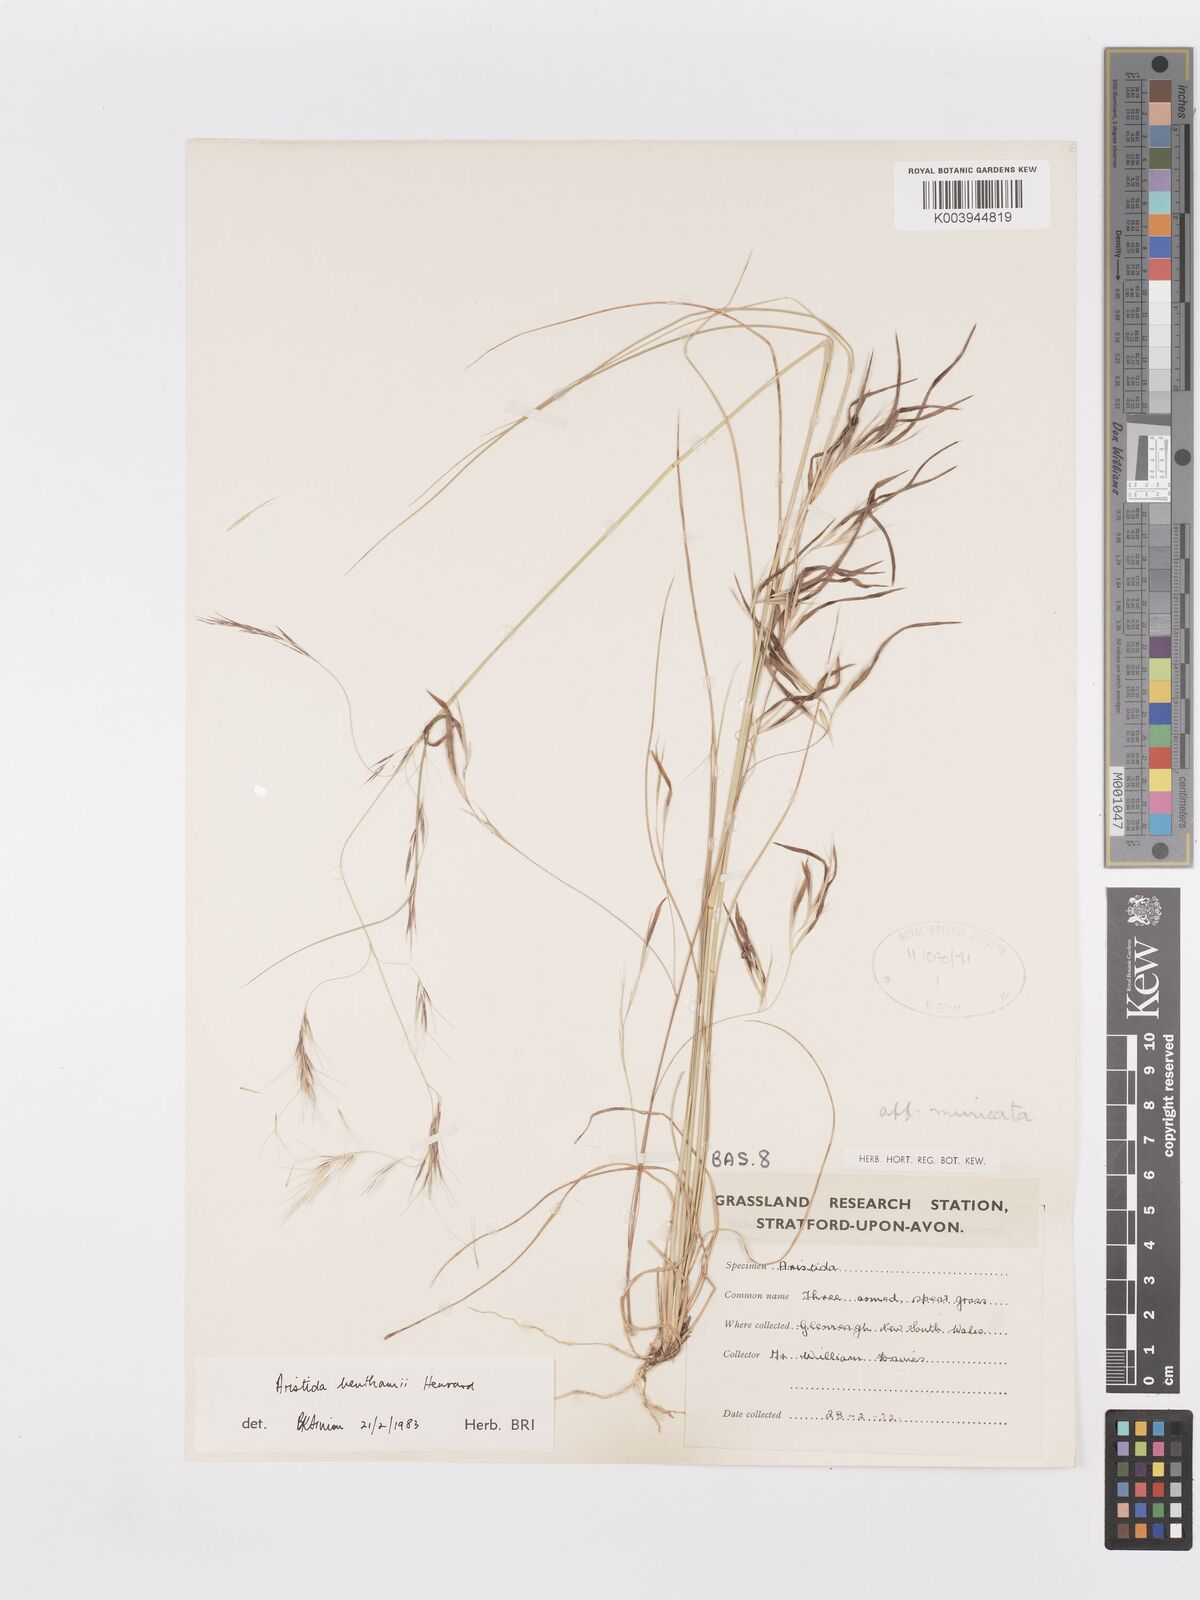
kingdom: Plantae
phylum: Tracheophyta
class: Liliopsida
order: Poales
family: Poaceae
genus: Aristida
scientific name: Aristida benthamii
